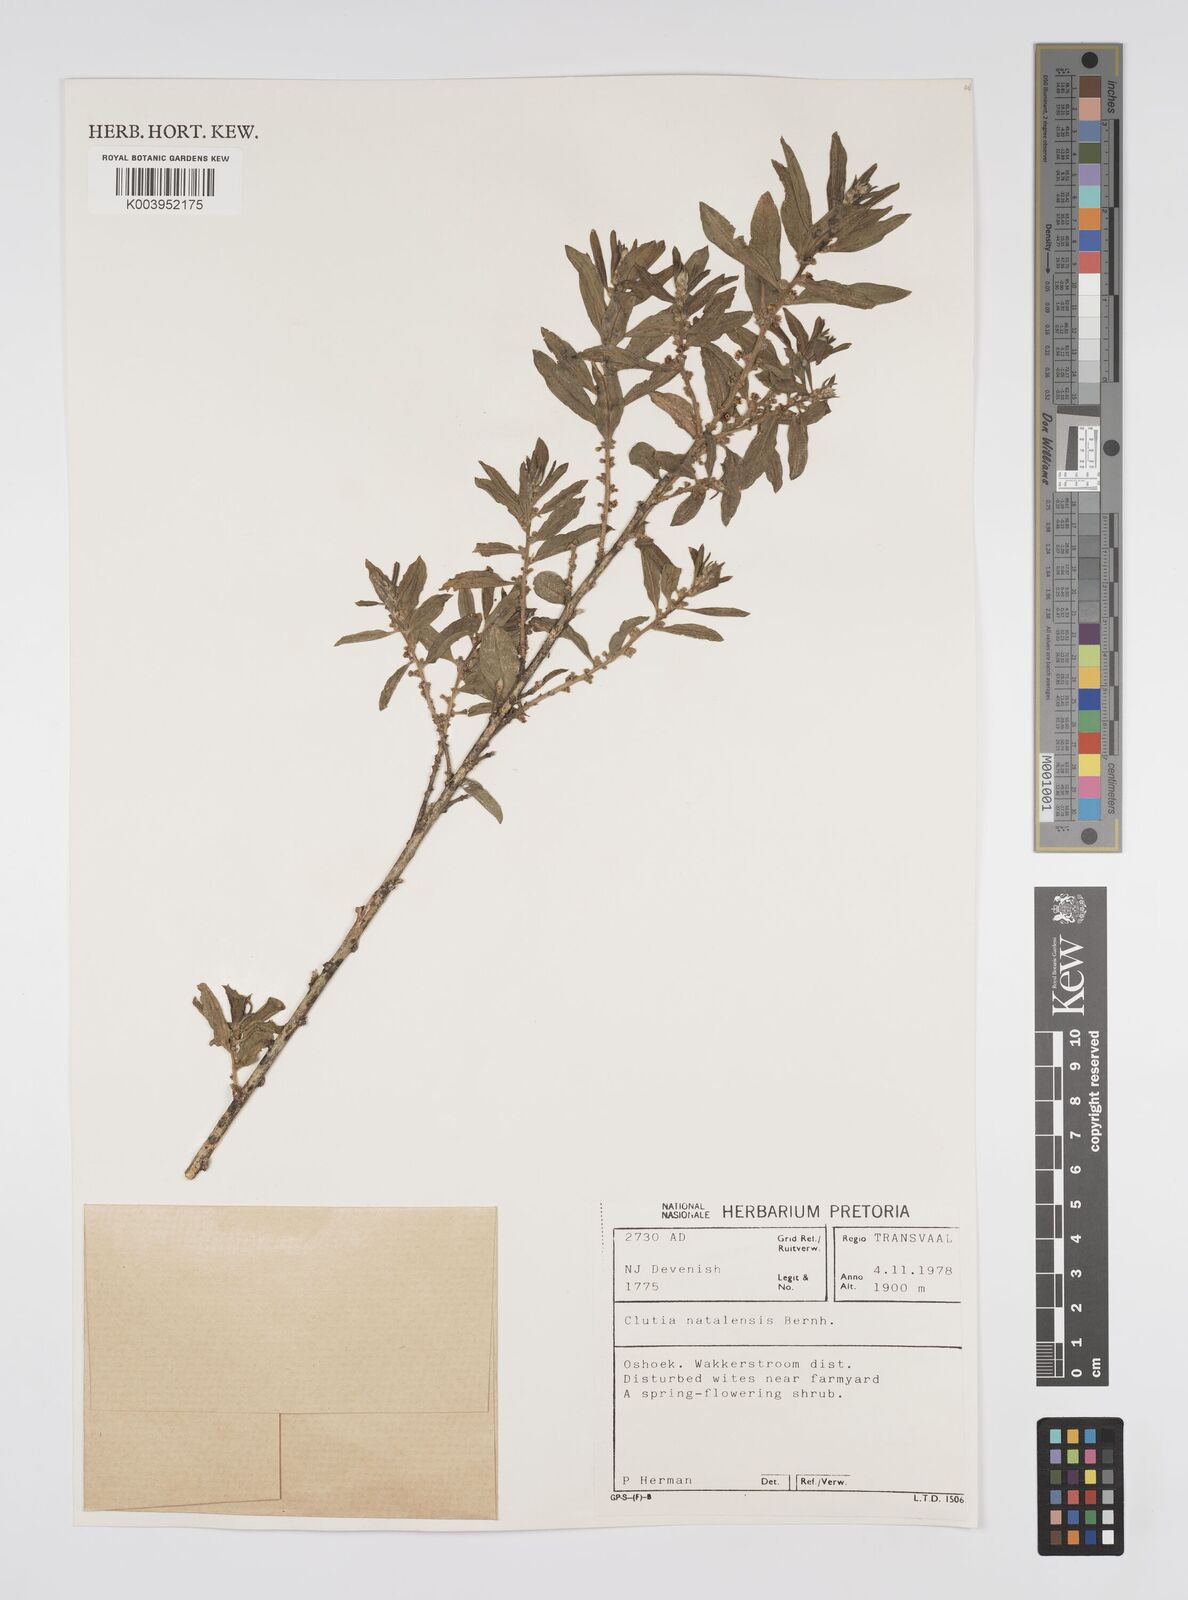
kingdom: Plantae
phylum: Tracheophyta
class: Magnoliopsida
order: Malpighiales
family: Peraceae
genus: Clutia
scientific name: Clutia natalensis
